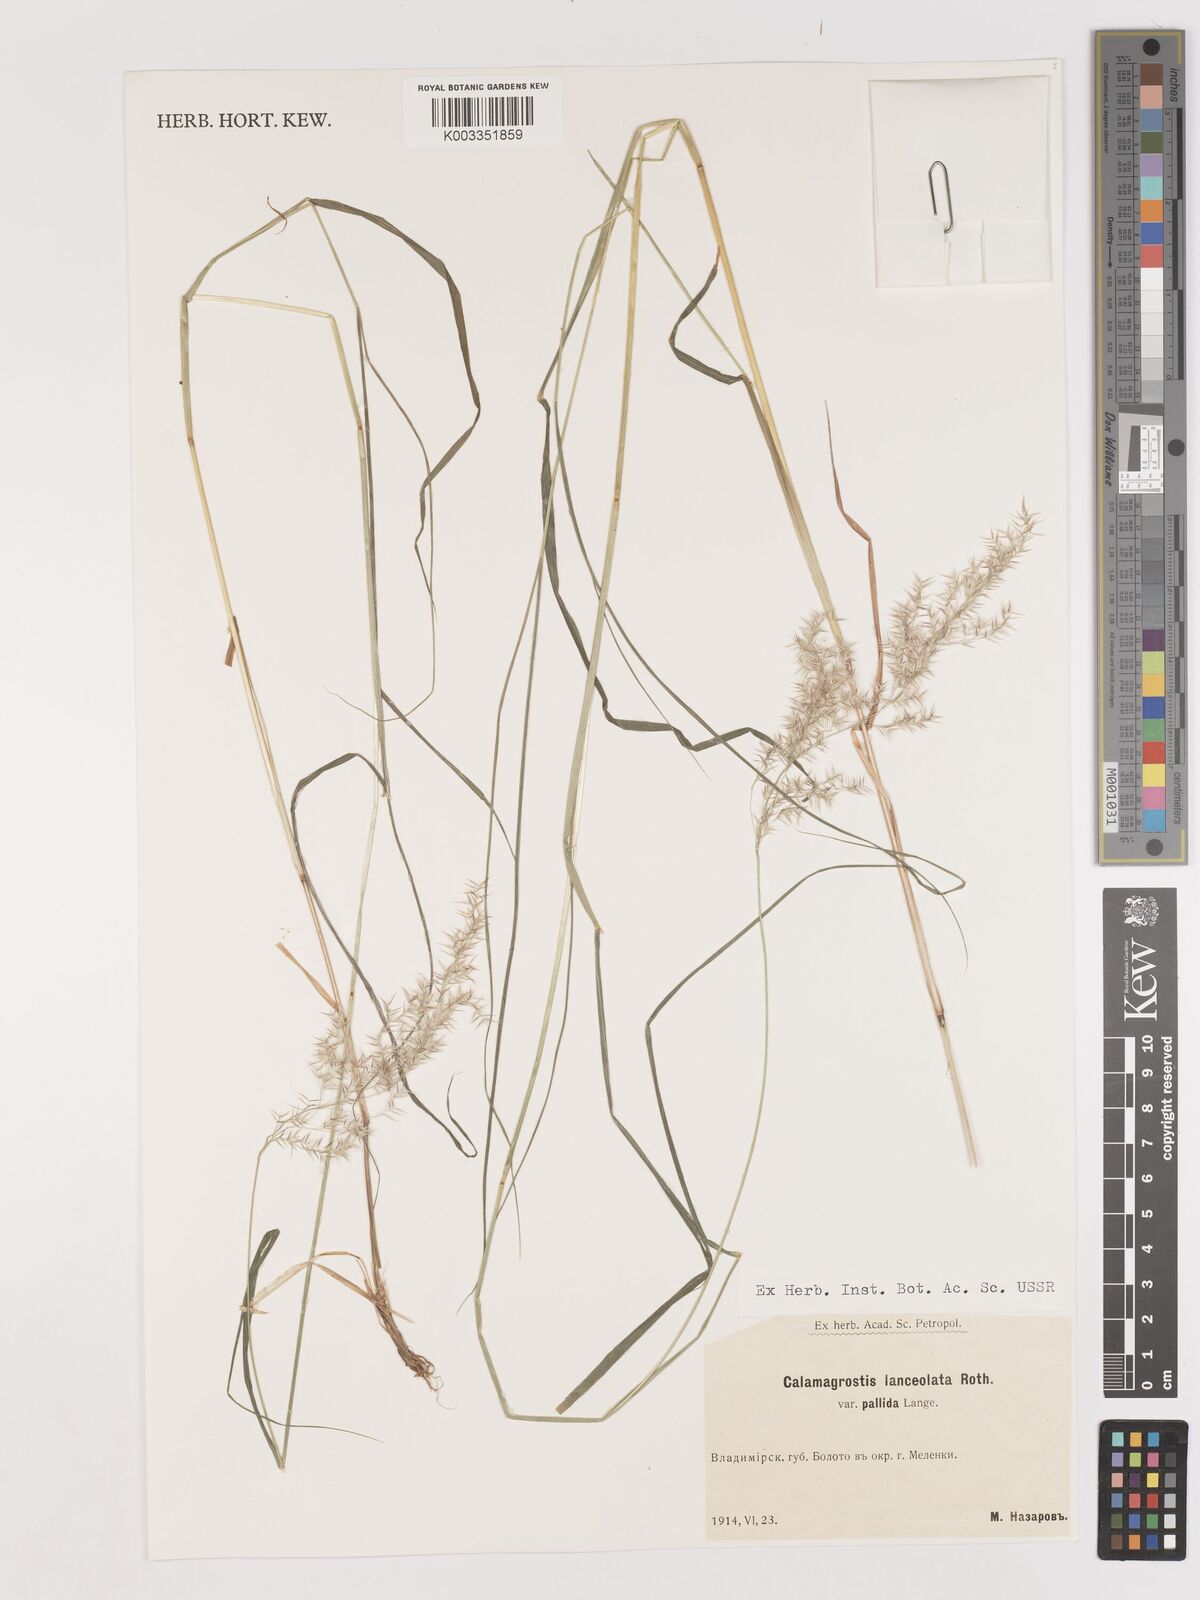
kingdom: Plantae
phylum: Tracheophyta
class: Liliopsida
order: Poales
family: Poaceae
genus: Calamagrostis
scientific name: Calamagrostis hakonensis
